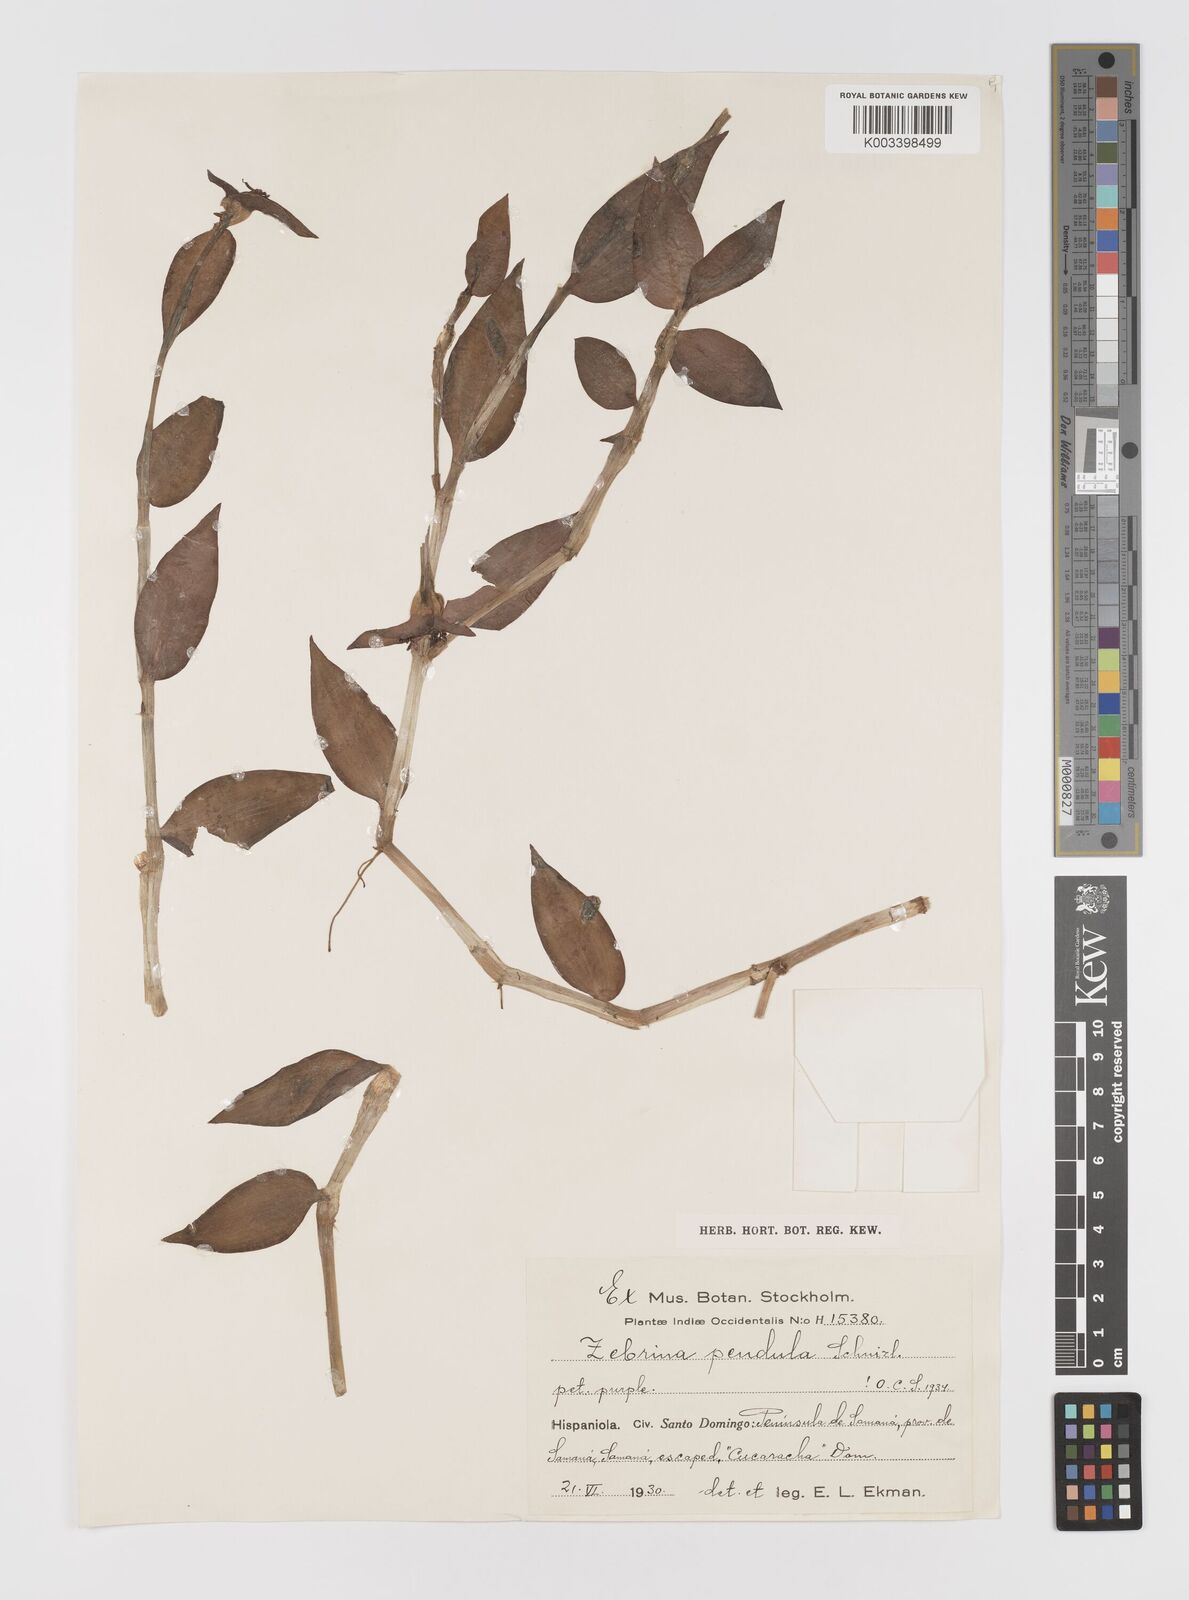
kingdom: Plantae
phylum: Tracheophyta
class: Liliopsida
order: Commelinales
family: Commelinaceae
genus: Tradescantia
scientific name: Tradescantia zebrina
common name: Inchplant
